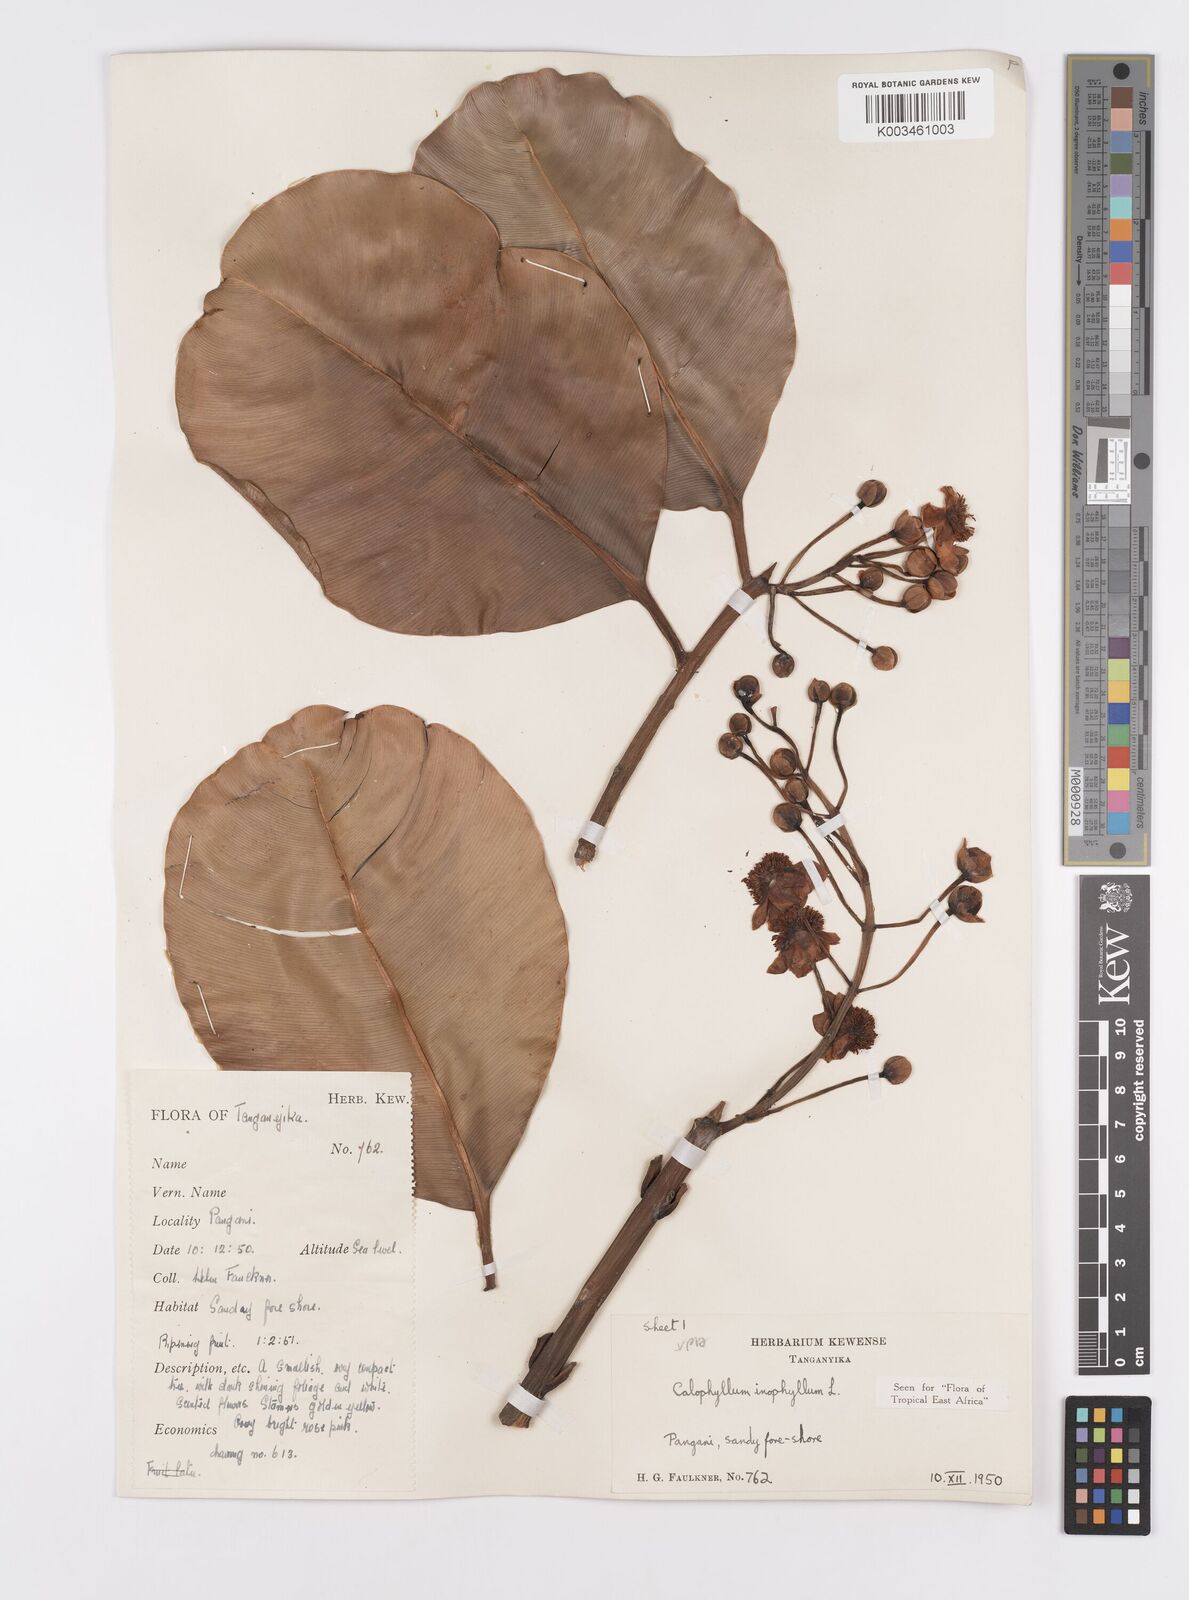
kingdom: Plantae
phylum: Tracheophyta
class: Magnoliopsida
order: Malpighiales
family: Calophyllaceae
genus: Calophyllum
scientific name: Calophyllum inophyllum
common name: Alexandrian laurel
